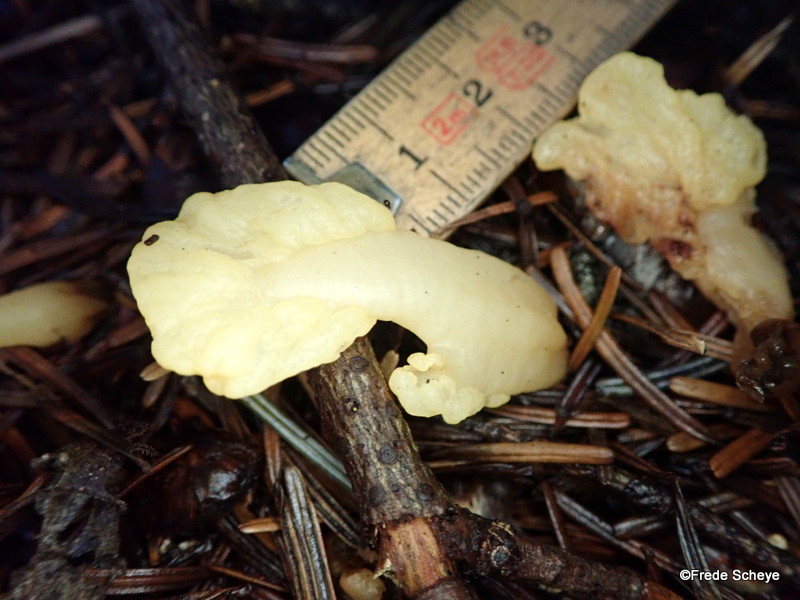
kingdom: Fungi
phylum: Ascomycota
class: Leotiomycetes
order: Rhytismatales
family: Cudoniaceae
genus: Spathularia
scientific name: Spathularia flavida
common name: gul spatelsvamp
